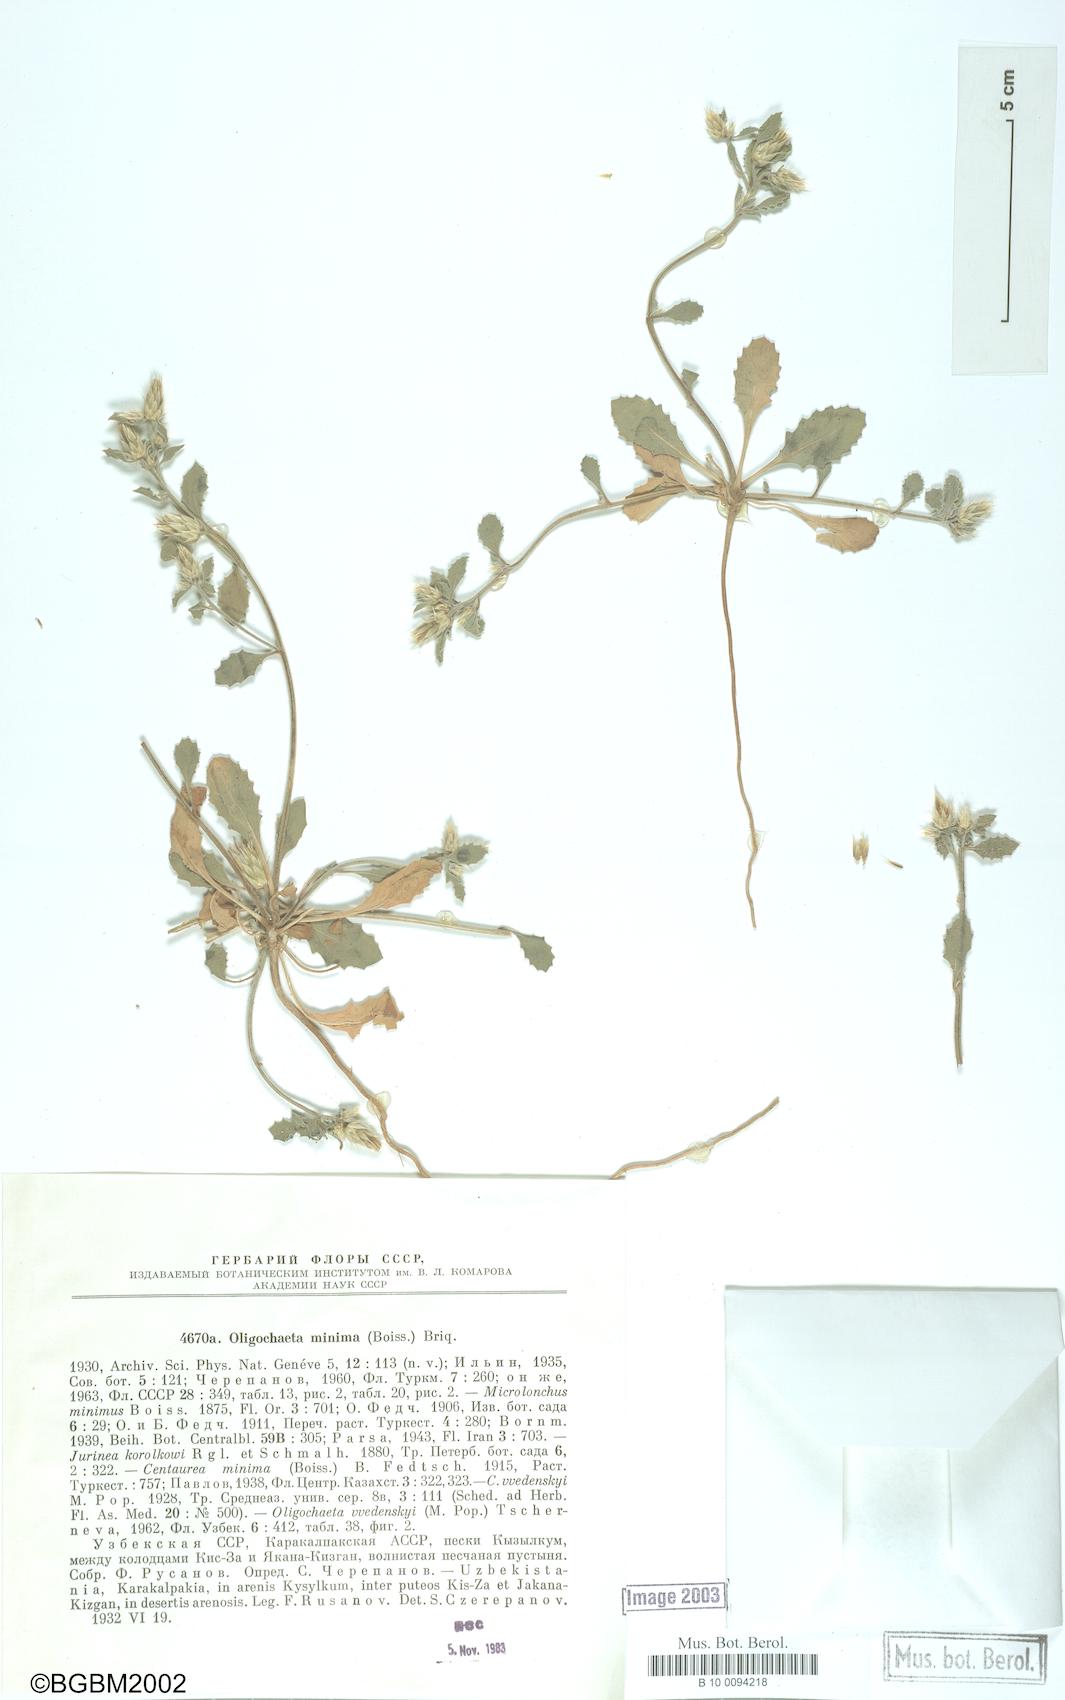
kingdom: Plantae
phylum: Tracheophyta
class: Magnoliopsida
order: Asterales
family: Asteraceae
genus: Oligochaeta
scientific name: Oligochaeta minima
